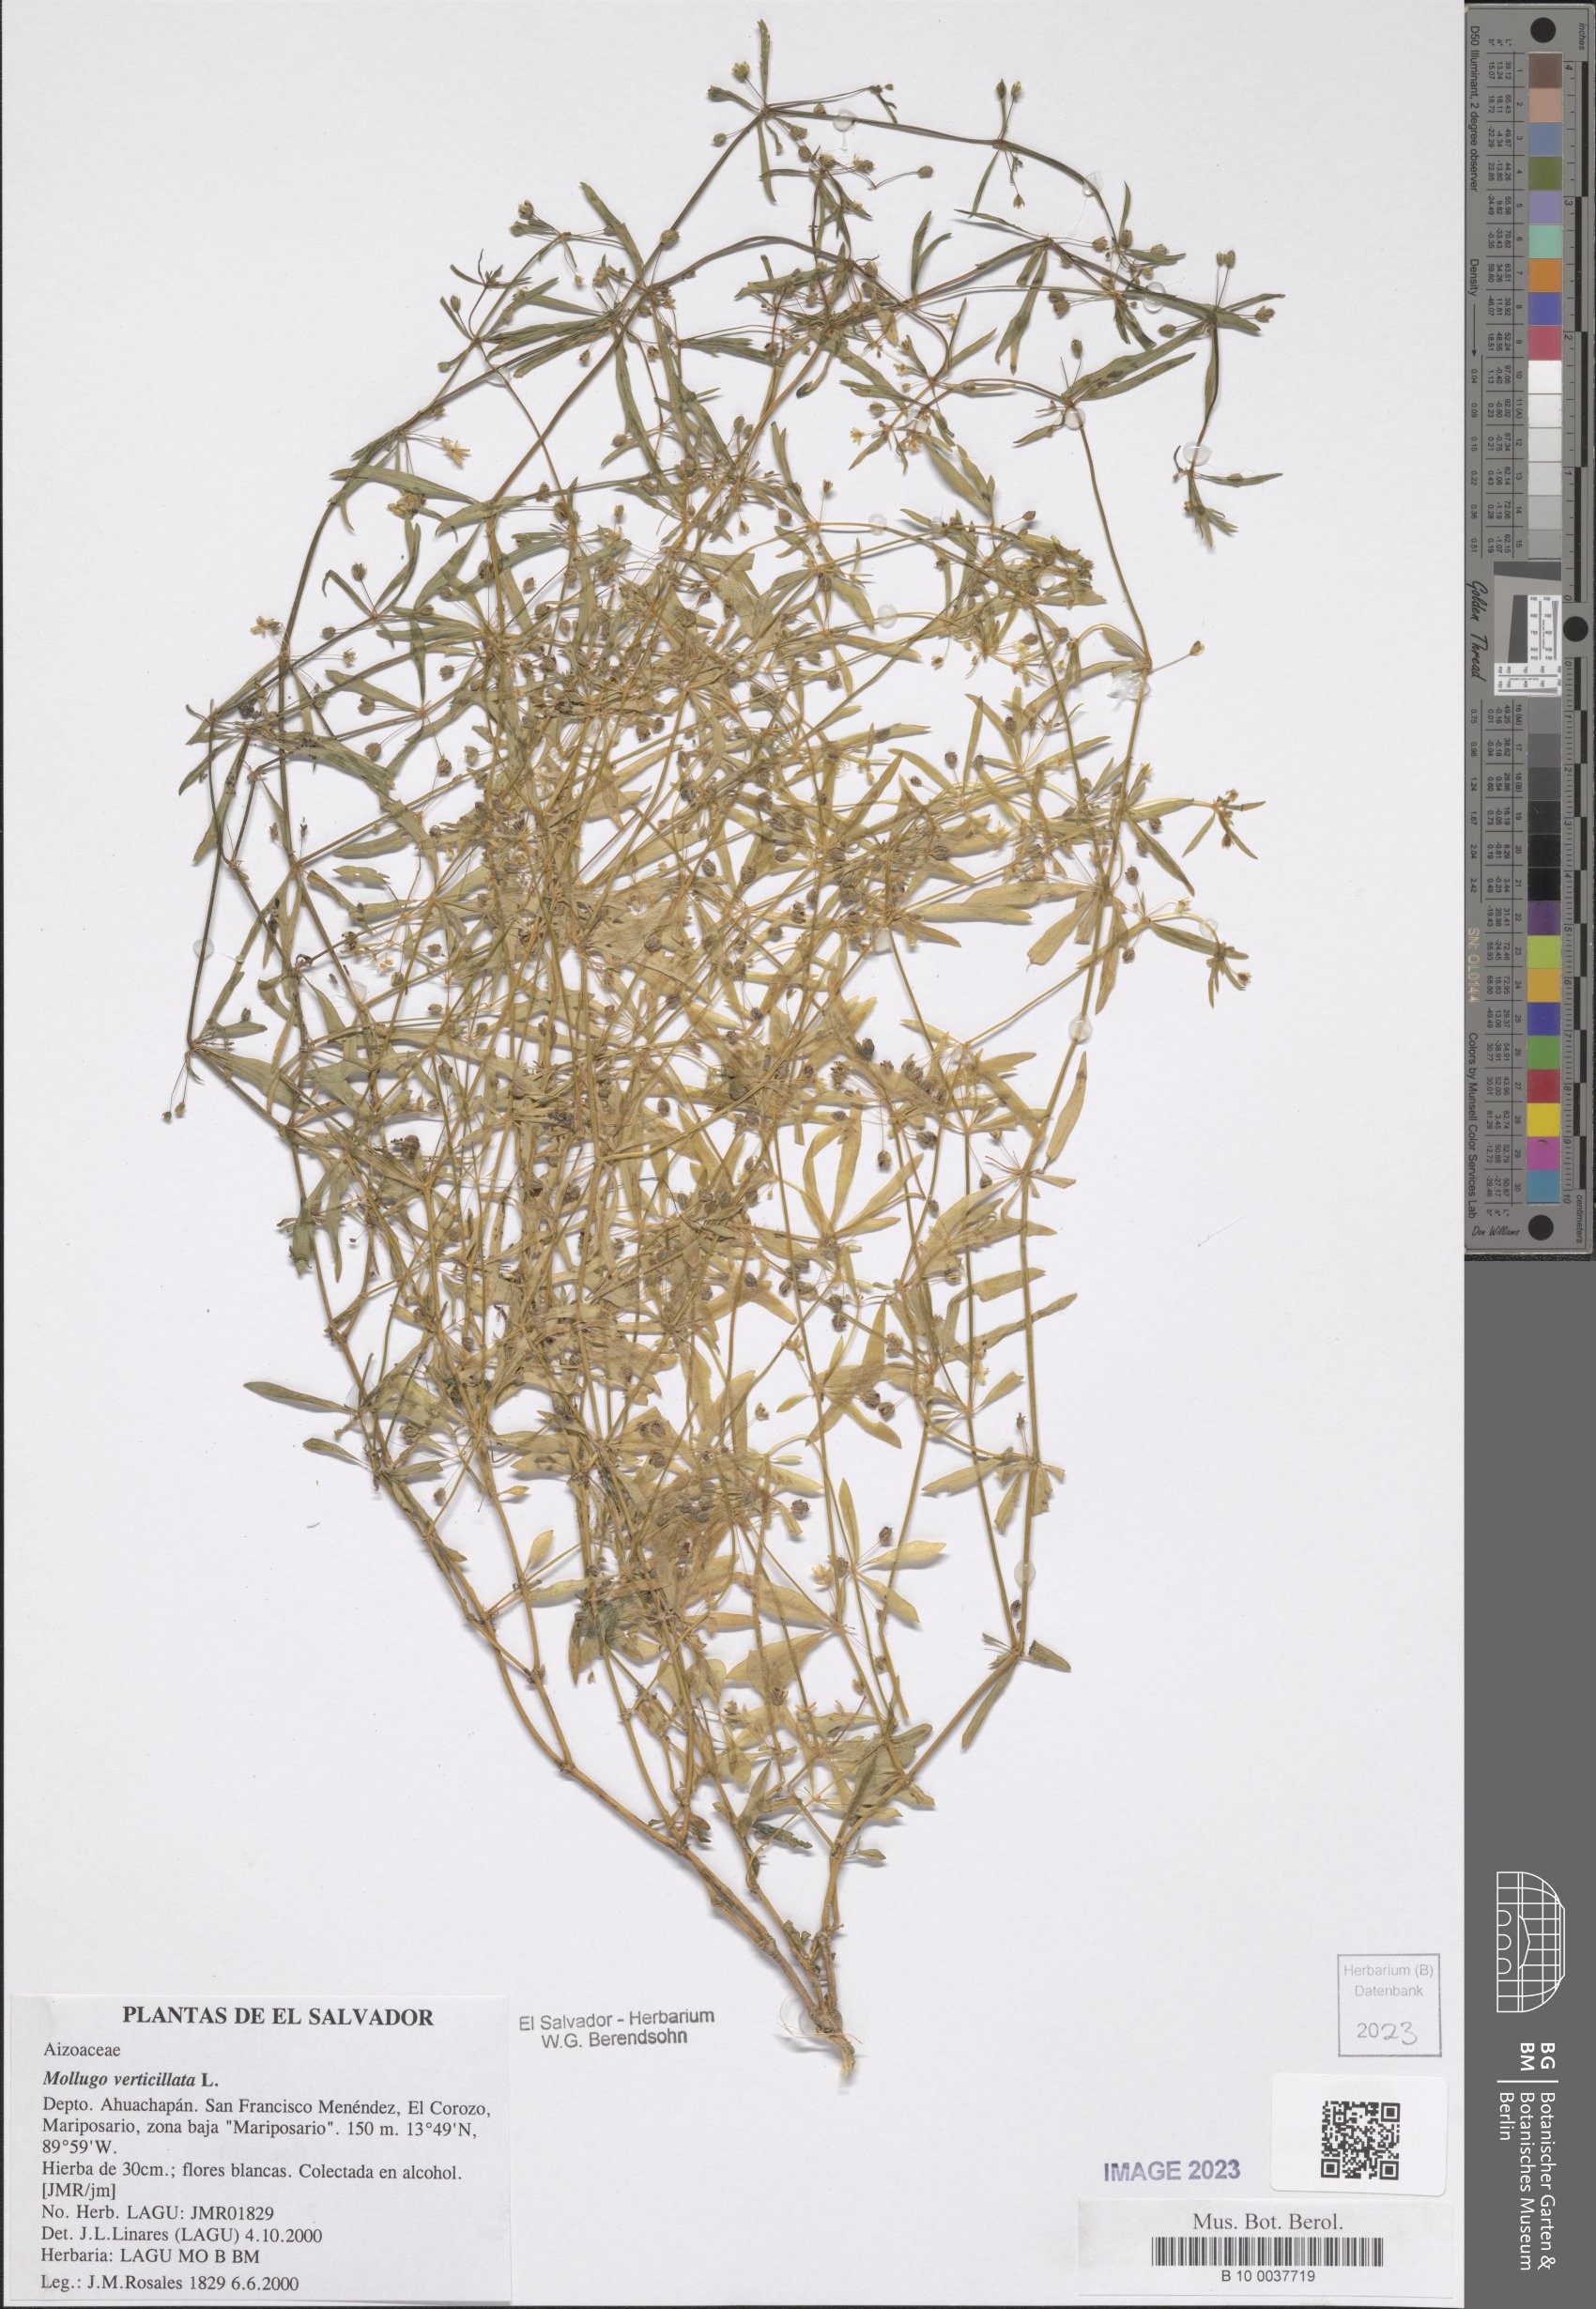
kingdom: Plantae
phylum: Tracheophyta
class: Magnoliopsida
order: Caryophyllales
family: Molluginaceae
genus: Mollugo
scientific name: Mollugo verticillata
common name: Green carpetweed
